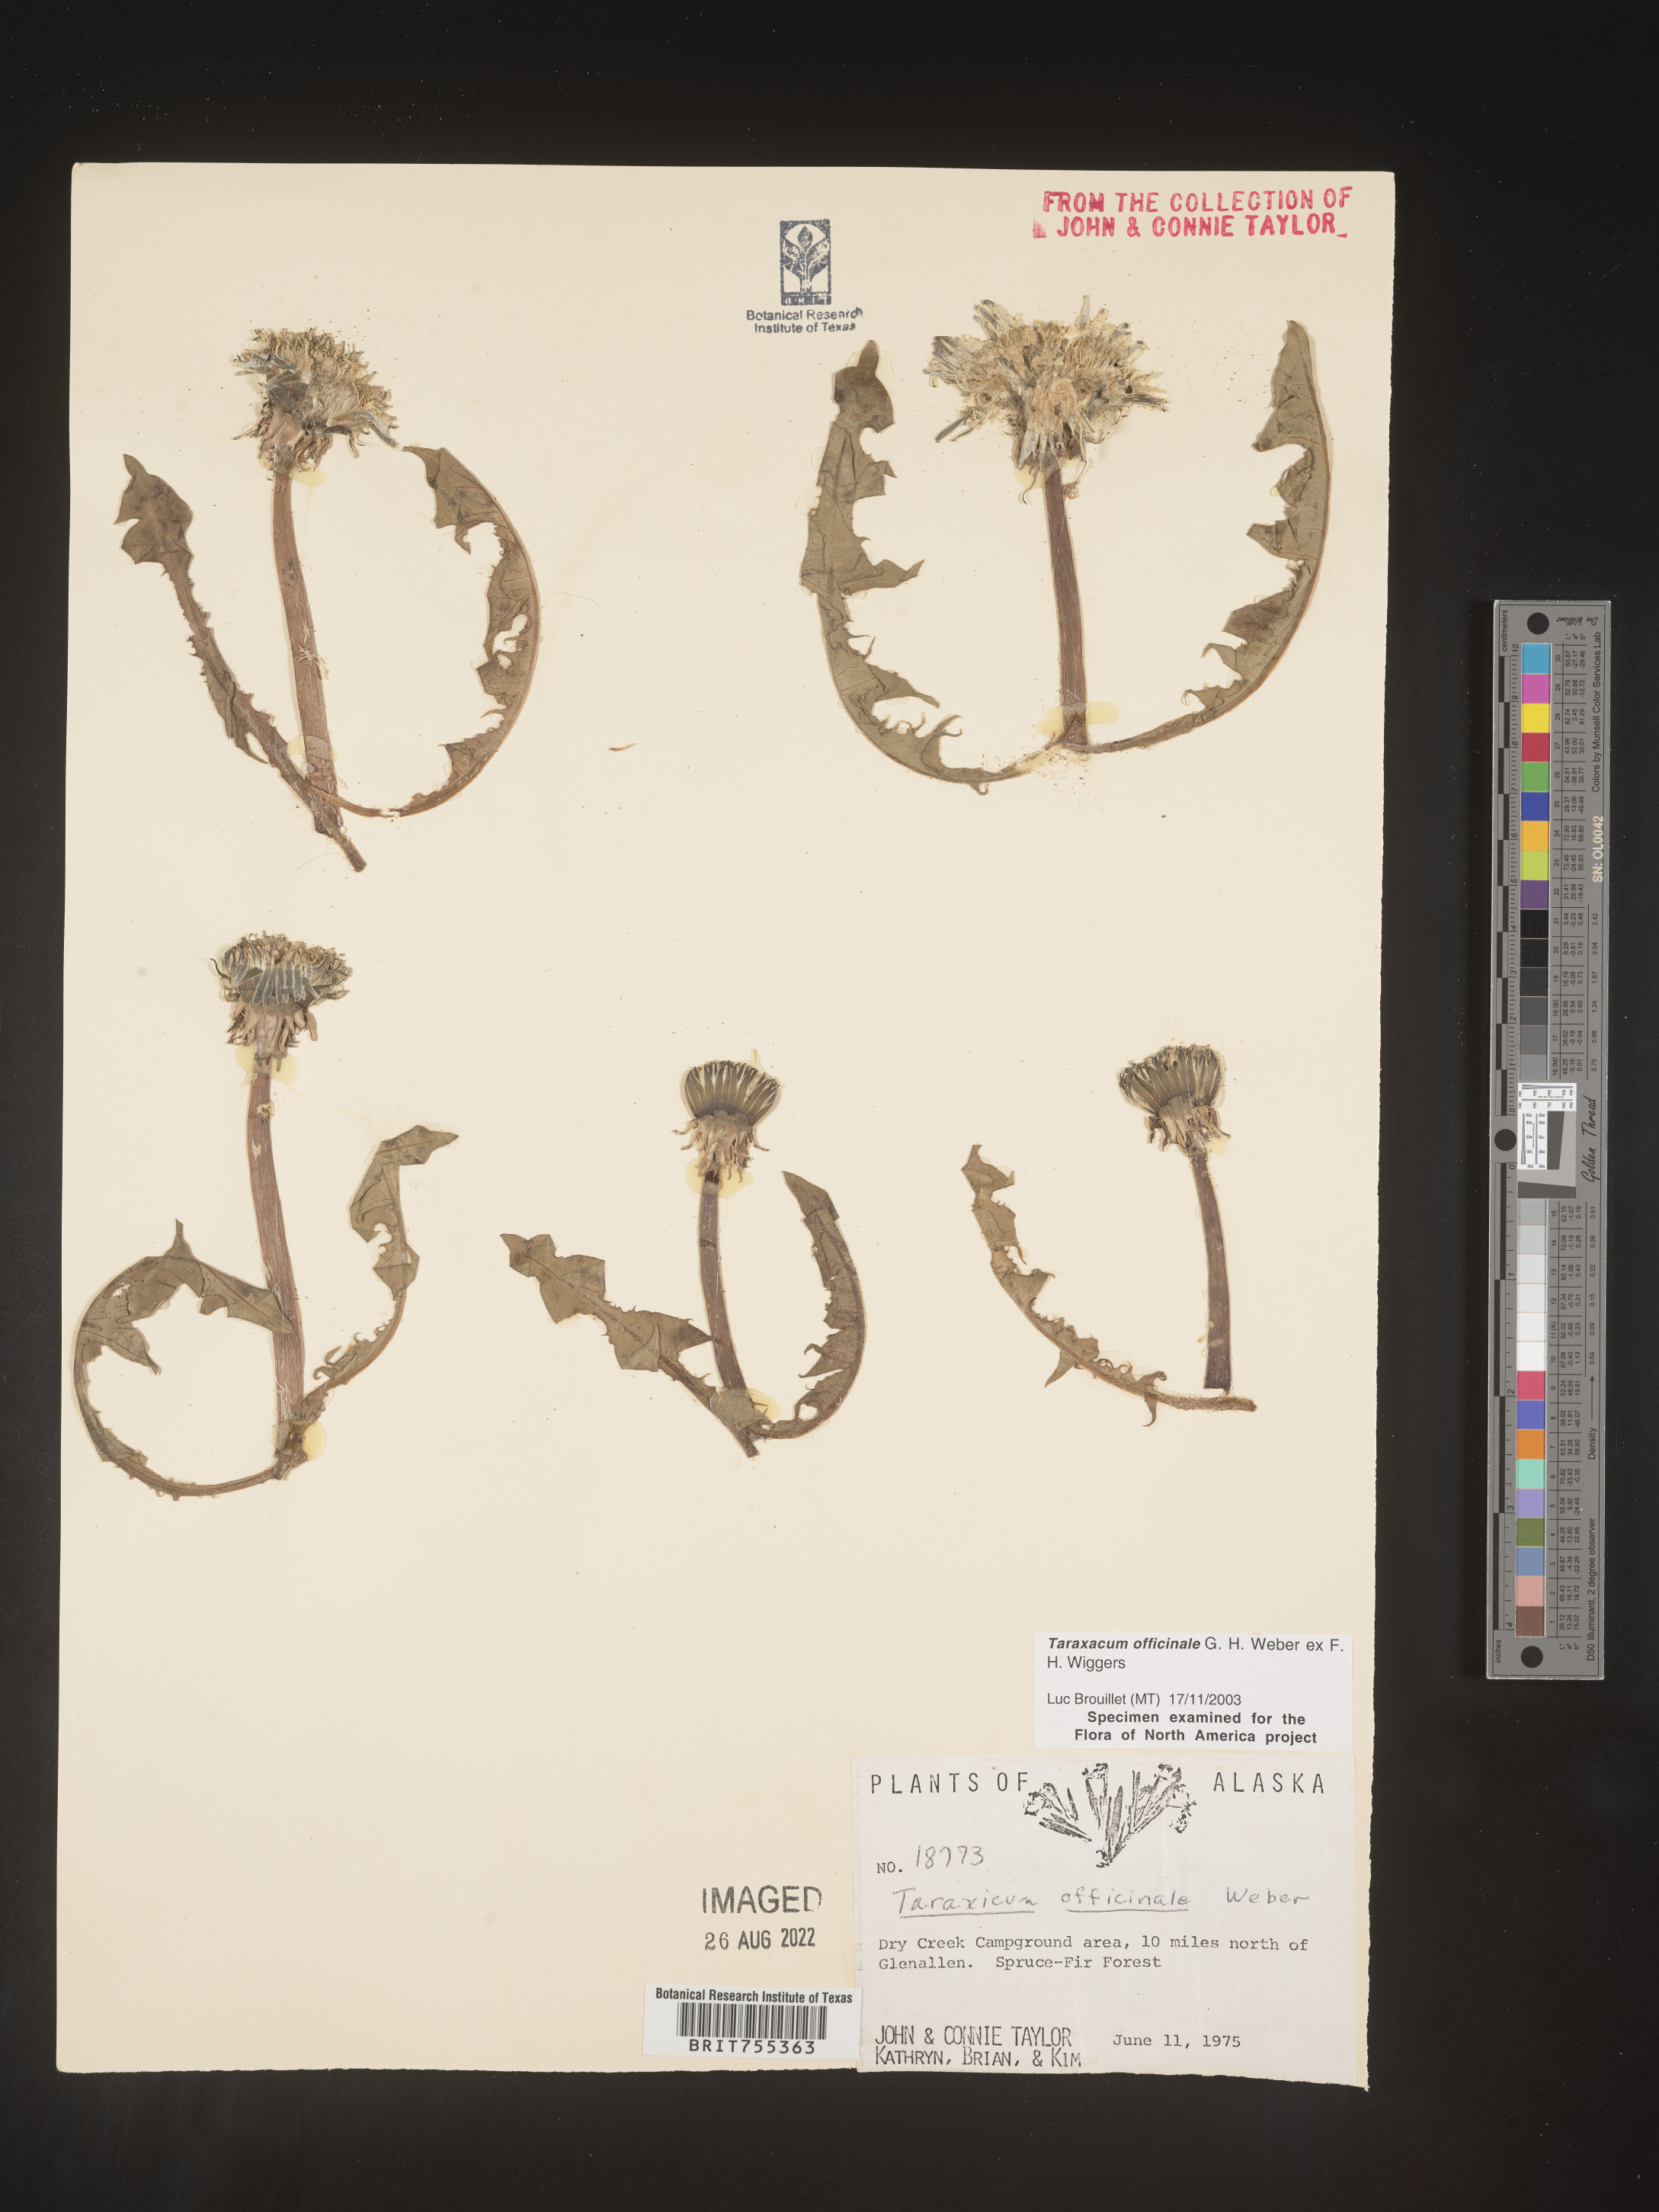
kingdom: Plantae
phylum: Tracheophyta
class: Magnoliopsida
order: Asterales
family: Asteraceae
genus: Taraxacum
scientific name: Taraxacum officinale
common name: Common dandelion
